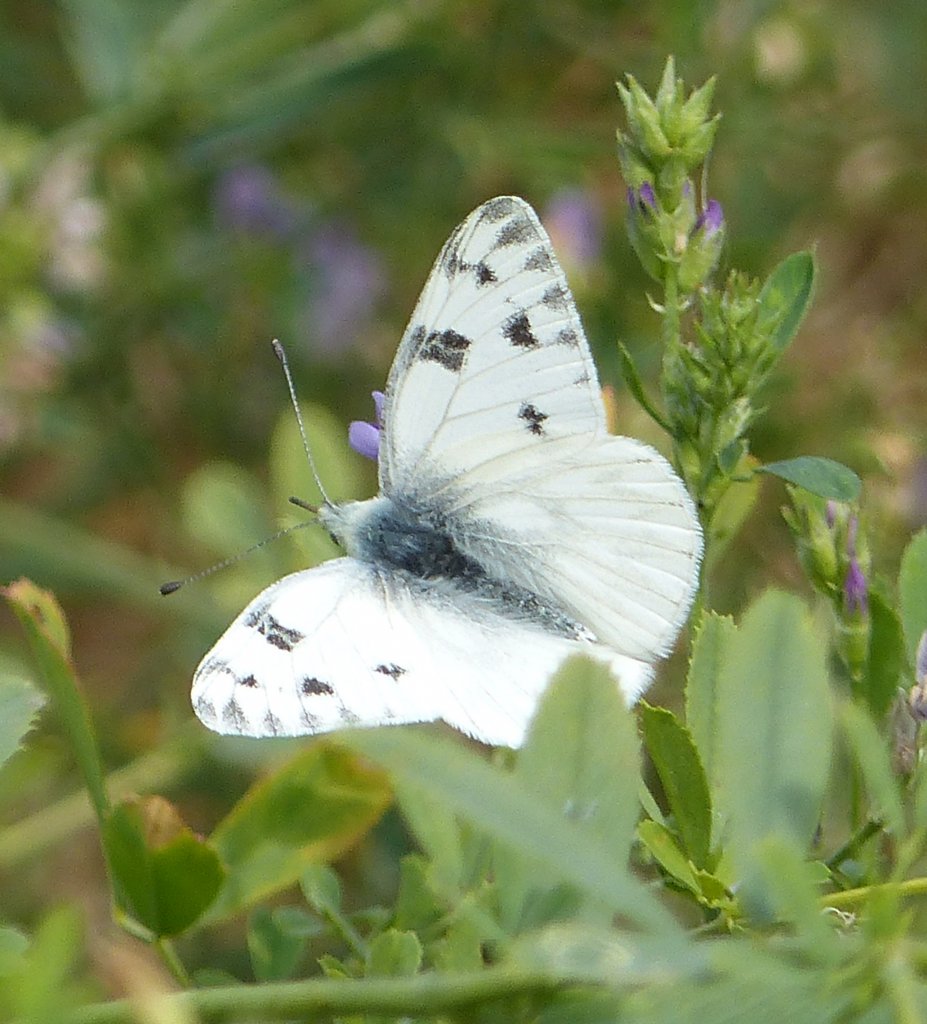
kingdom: Animalia
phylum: Arthropoda
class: Insecta
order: Lepidoptera
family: Pieridae
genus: Pontia
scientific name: Pontia occidentalis
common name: Western White
